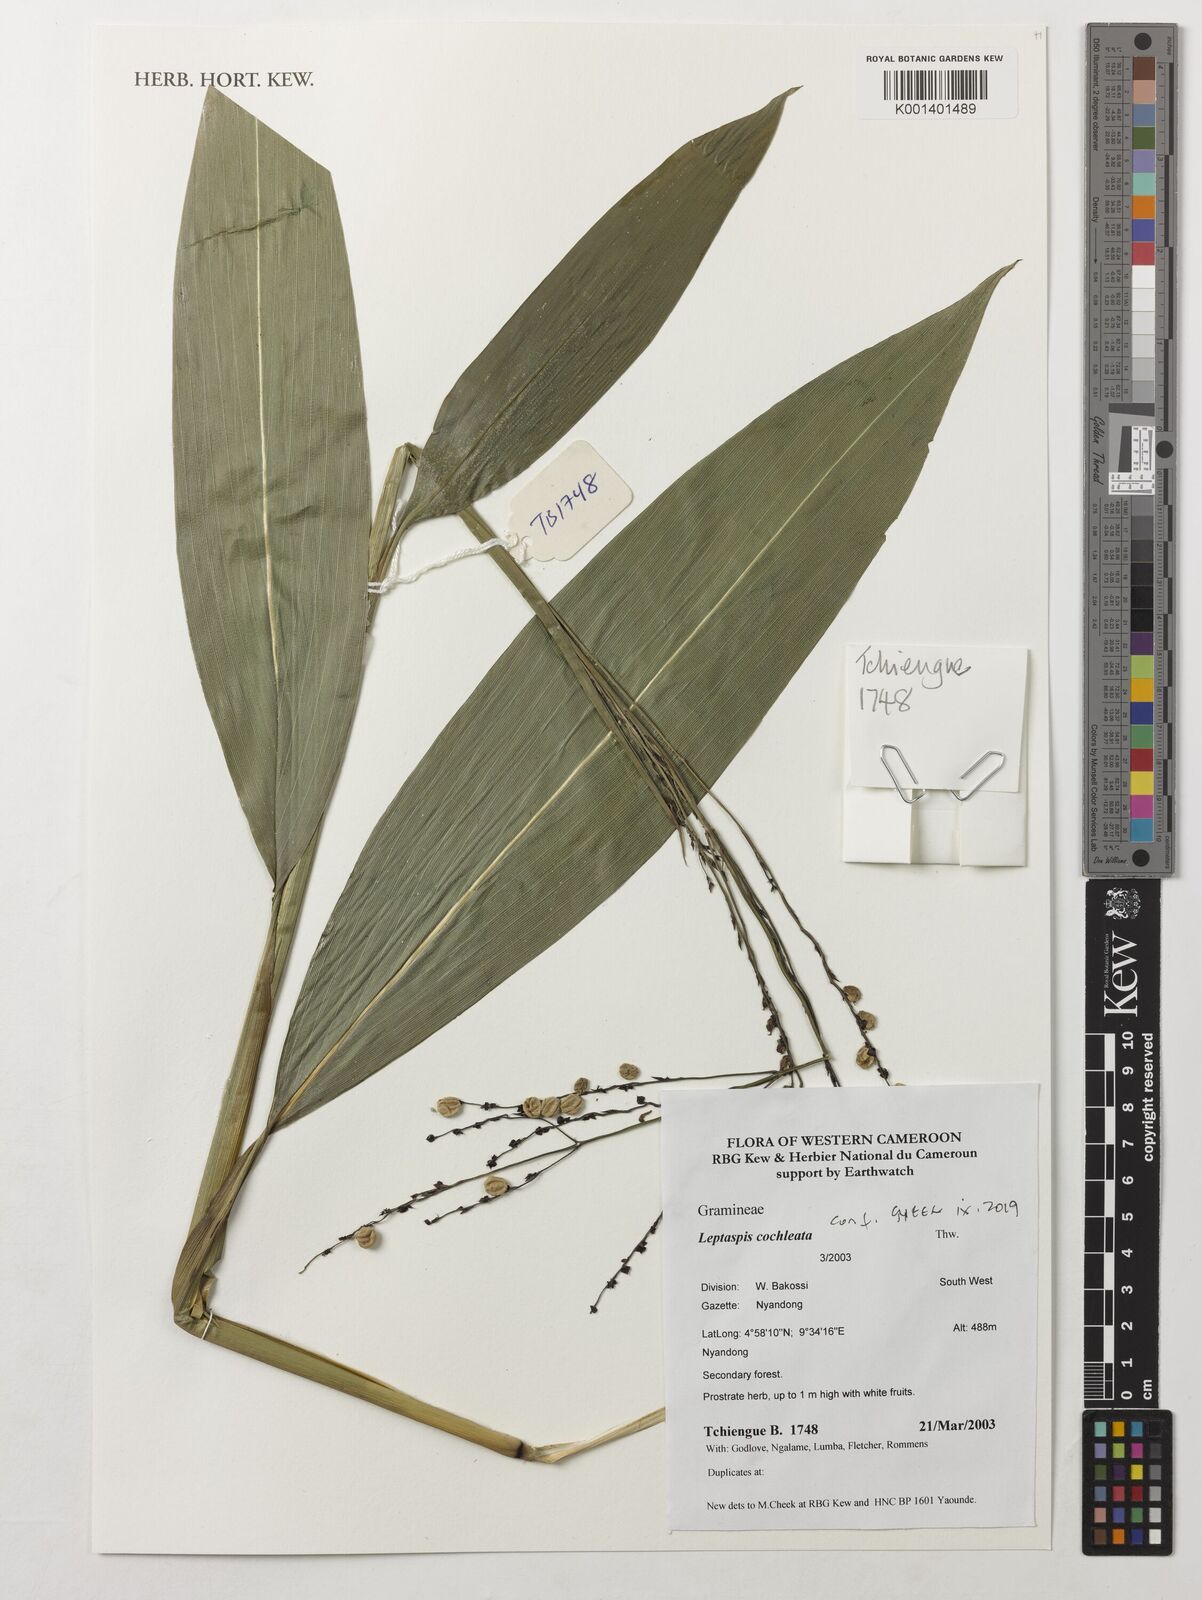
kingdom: Plantae
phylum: Tracheophyta
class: Liliopsida
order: Poales
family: Poaceae
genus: Leptaspis
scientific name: Leptaspis zeylanica
